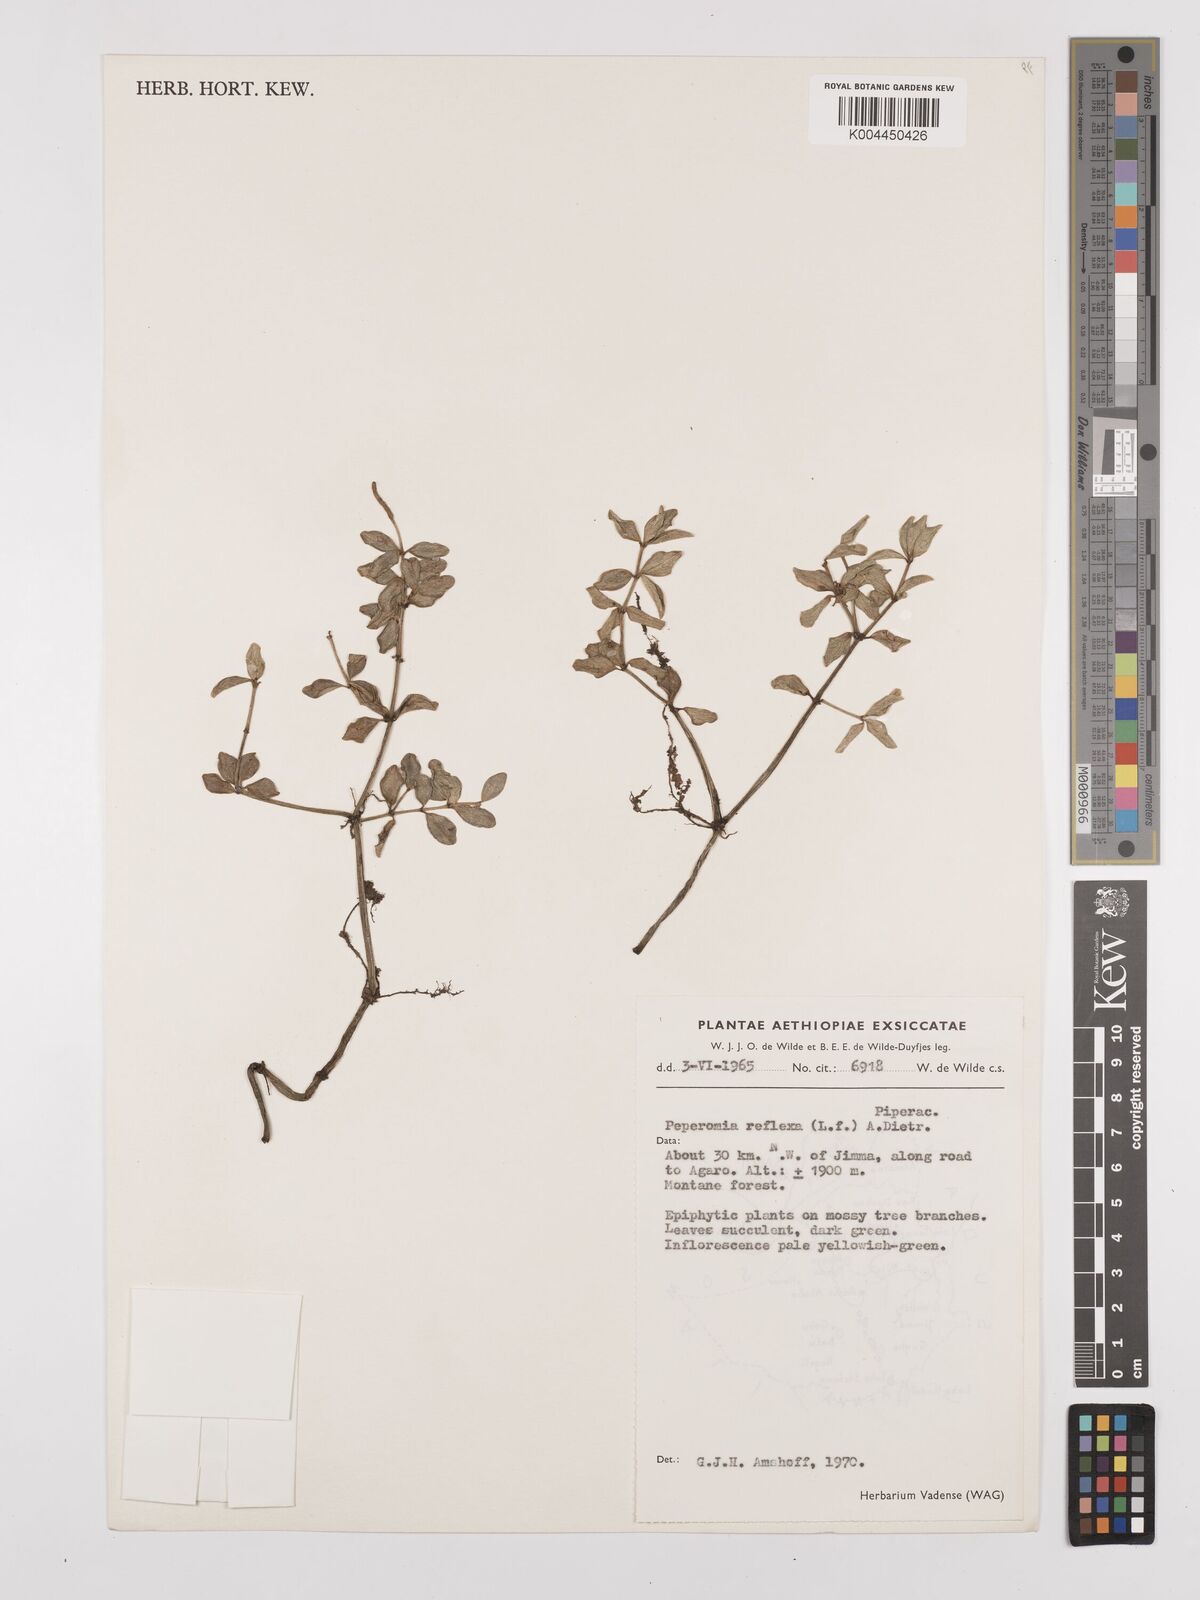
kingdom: Plantae
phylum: Tracheophyta
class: Magnoliopsida
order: Piperales
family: Piperaceae
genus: Peperomia
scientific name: Peperomia tetraphylla
